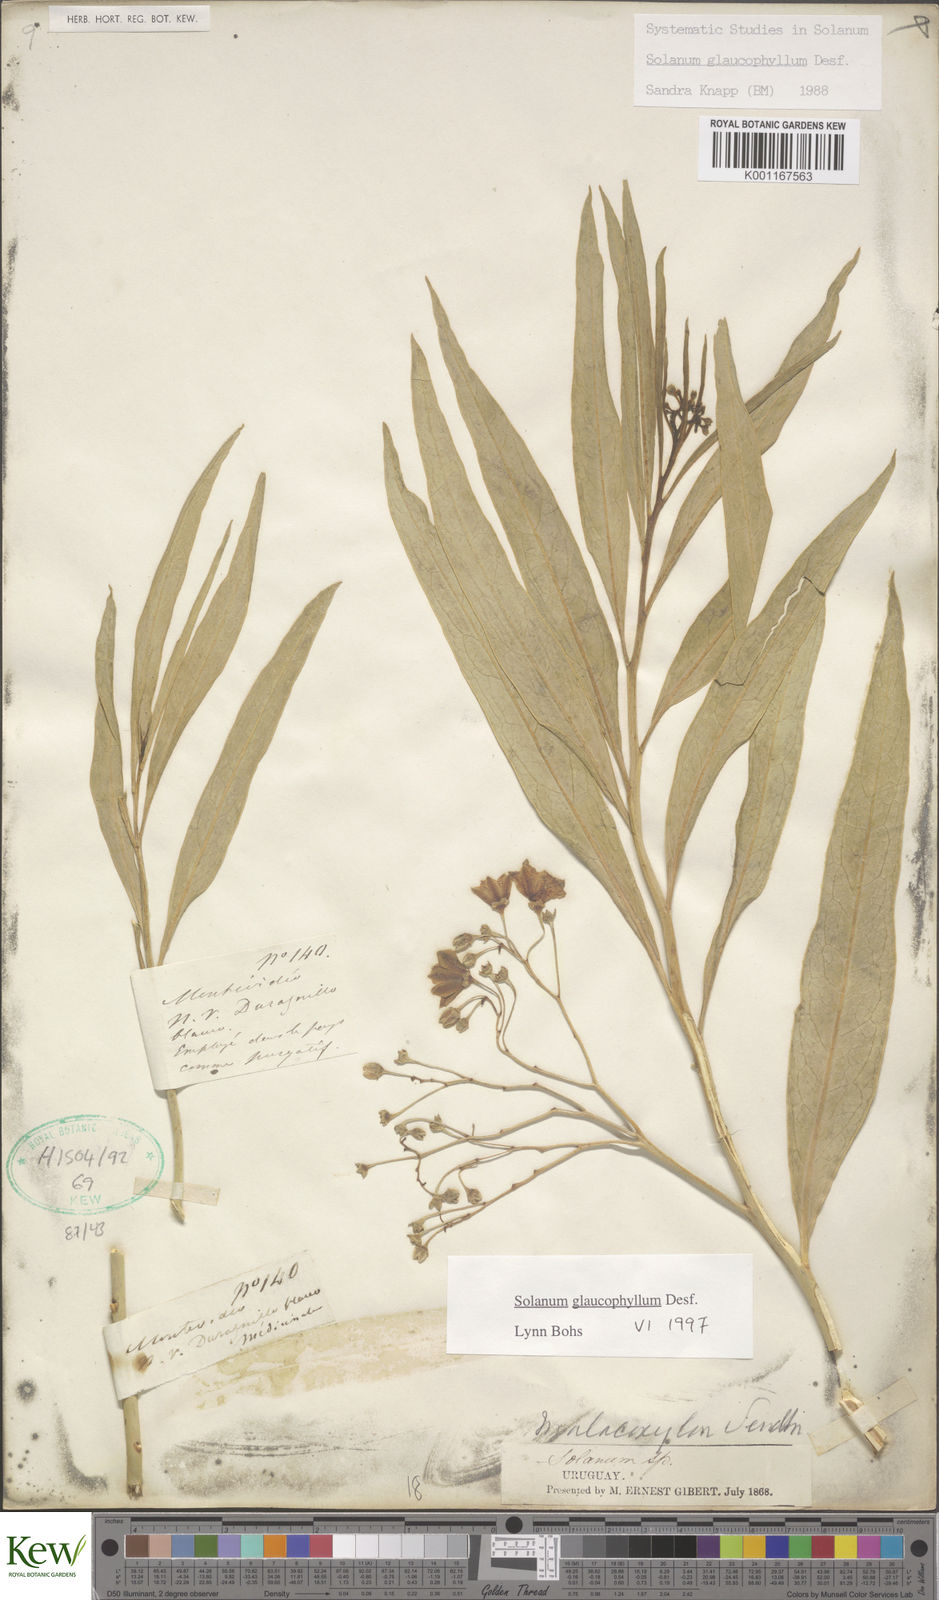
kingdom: Plantae
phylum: Tracheophyta
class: Magnoliopsida
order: Solanales
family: Solanaceae
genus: Solanum
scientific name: Solanum glaucophyllum
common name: Waxyleaf nightshade
